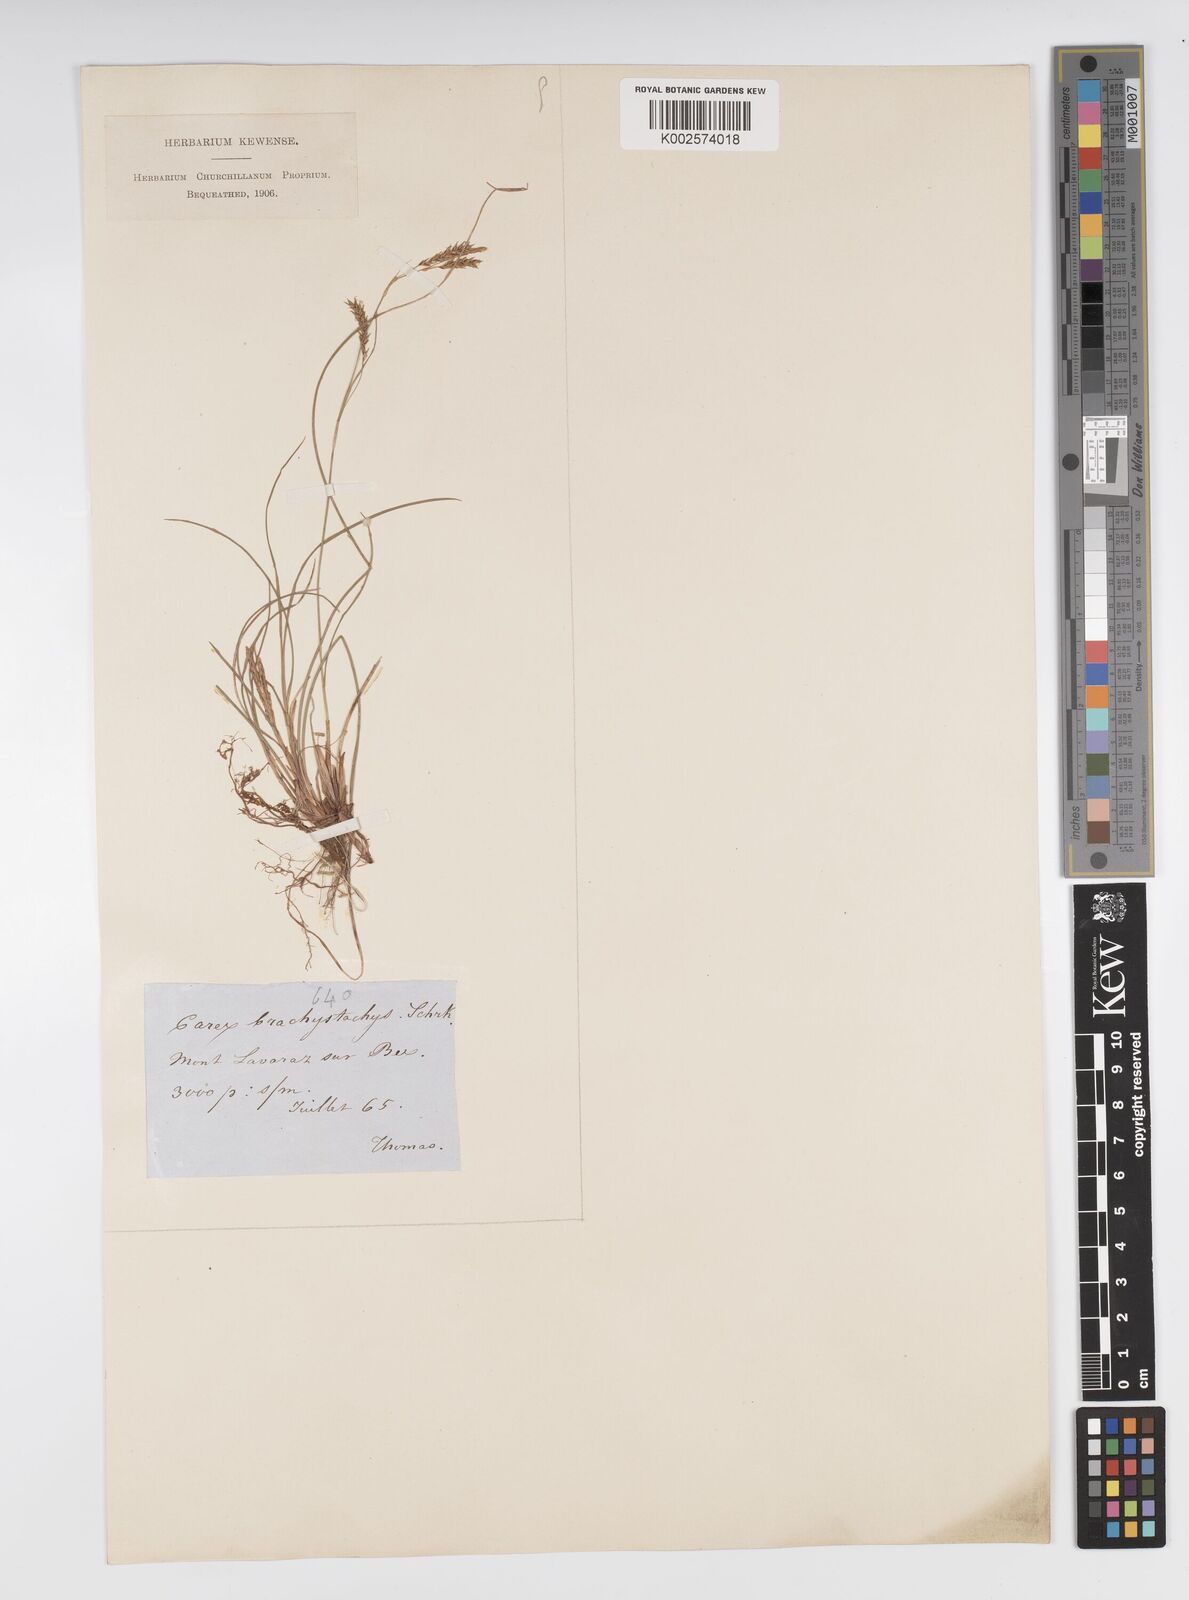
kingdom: Plantae
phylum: Tracheophyta
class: Liliopsida
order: Poales
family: Cyperaceae
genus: Carex
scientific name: Carex brachystachys
